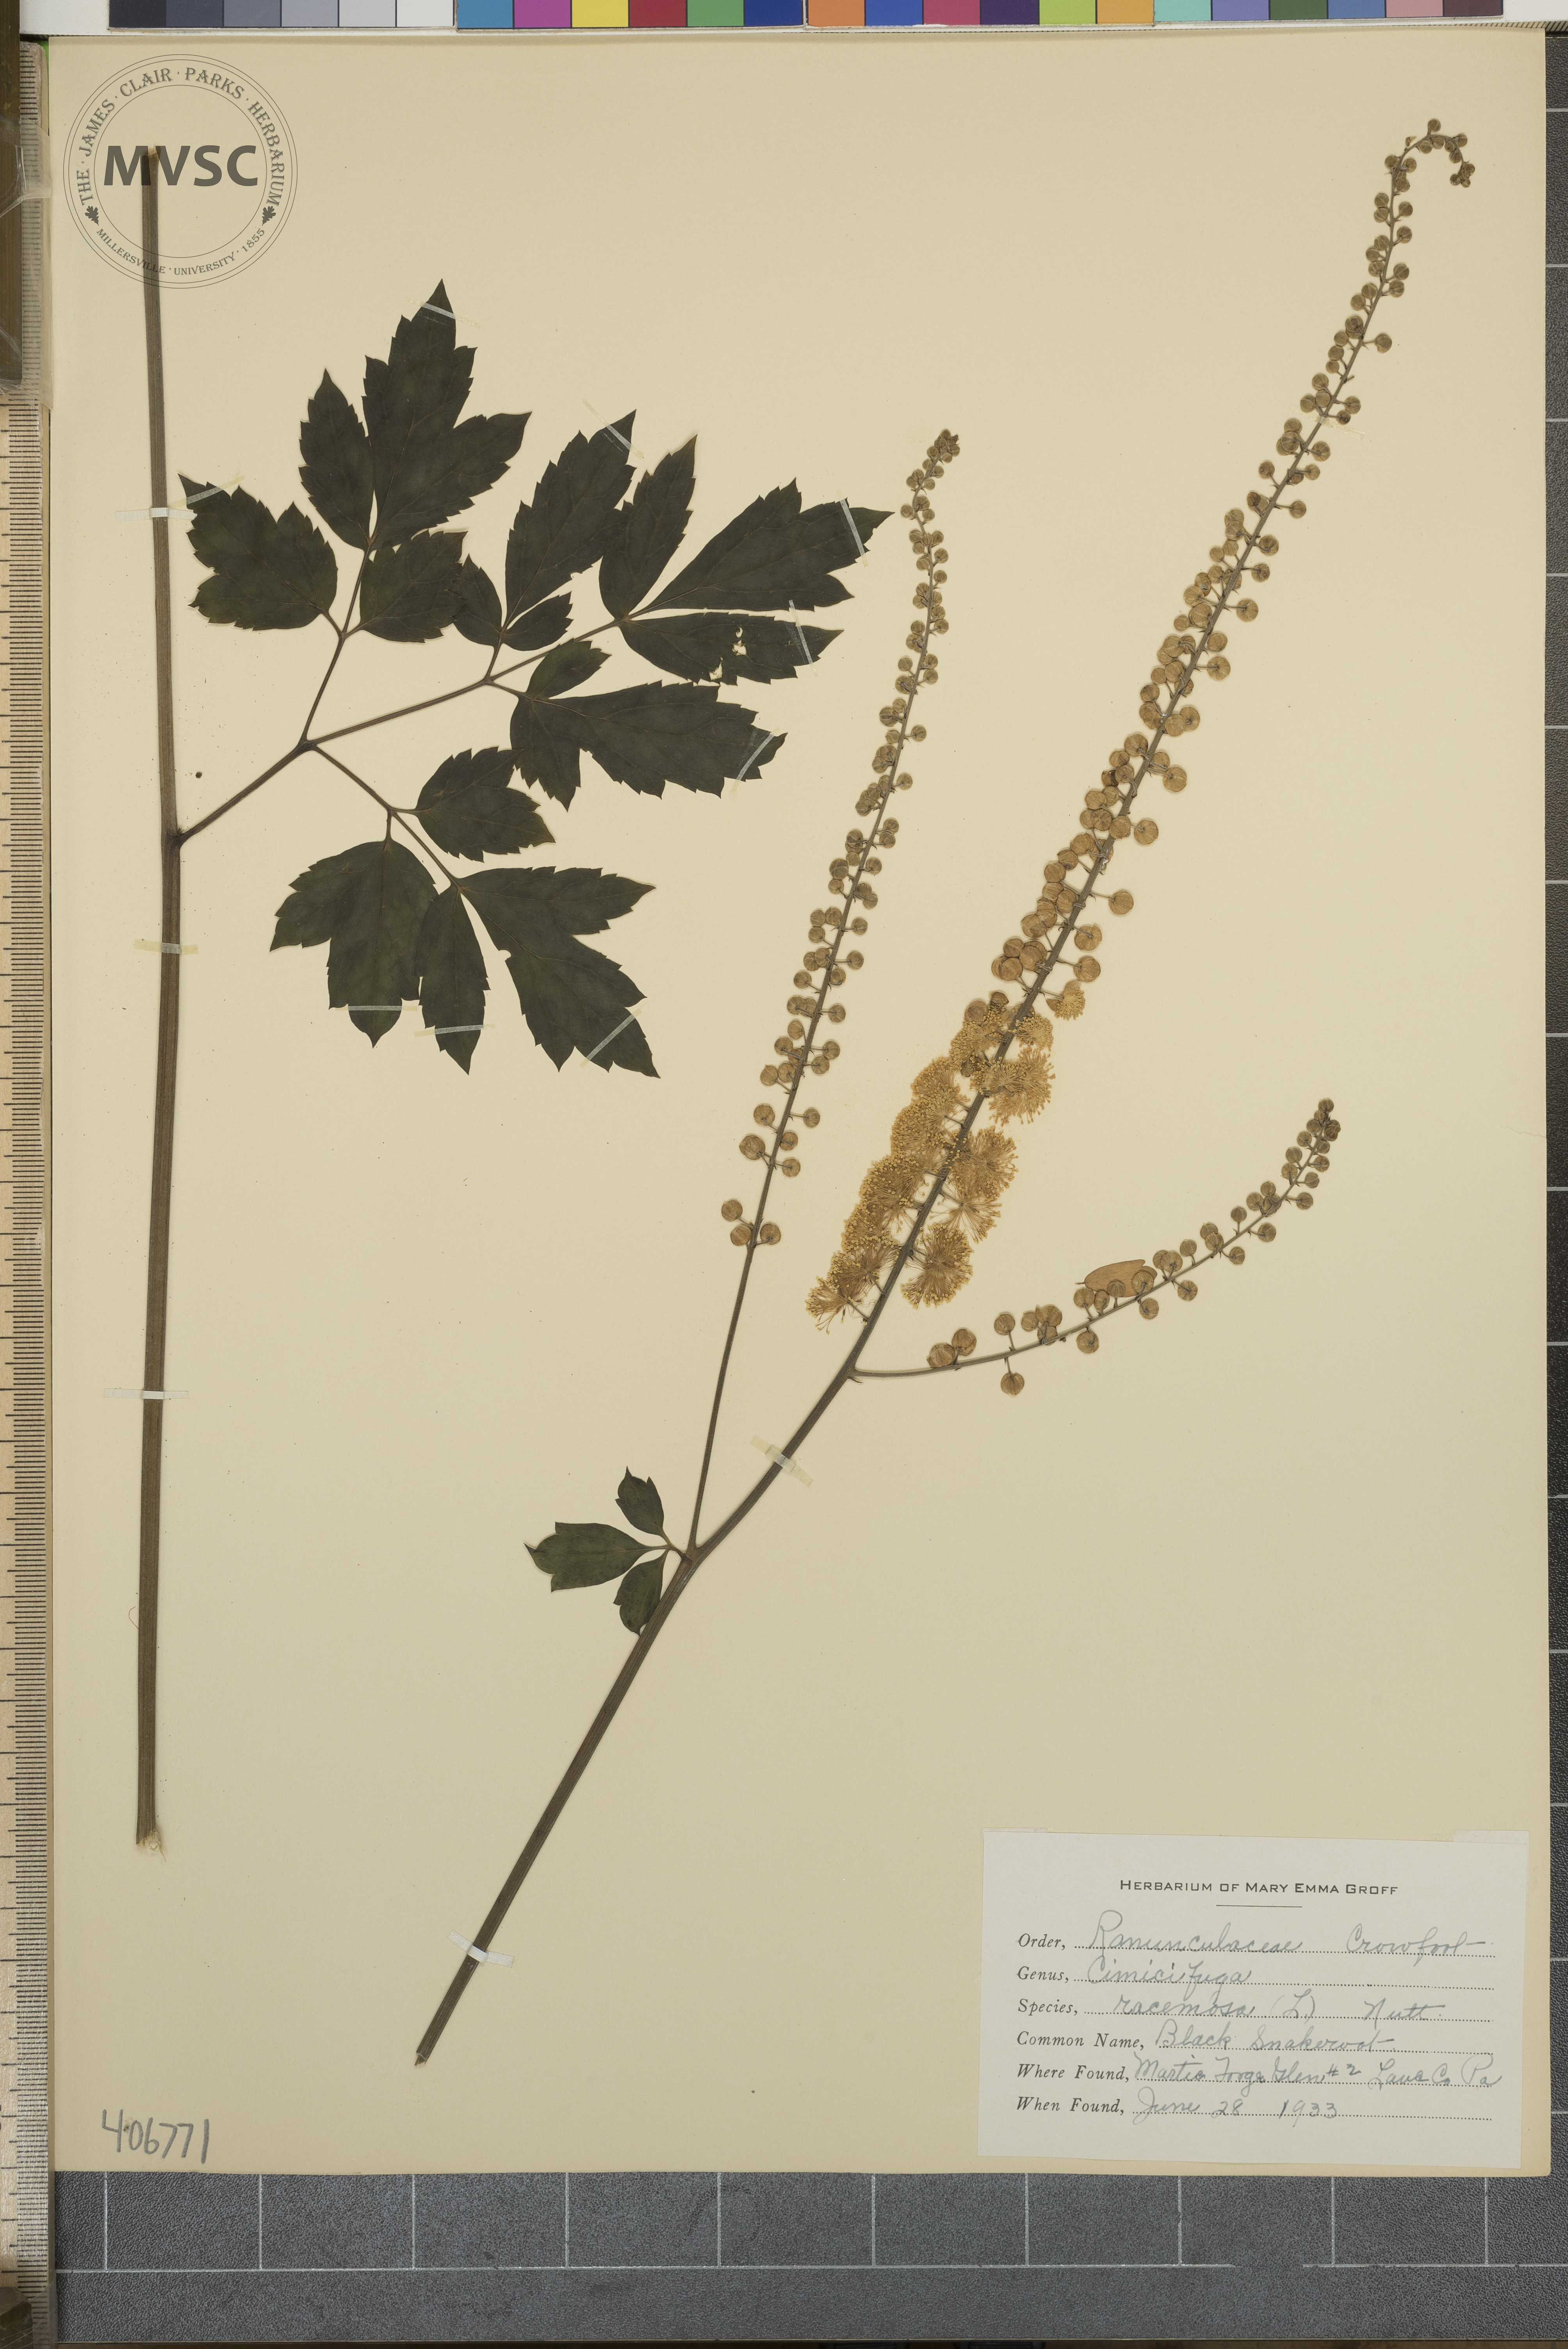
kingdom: Plantae
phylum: Tracheophyta
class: Magnoliopsida
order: Ranunculales
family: Ranunculaceae
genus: Actaea
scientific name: Actaea racemosa
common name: Black snakeroot
